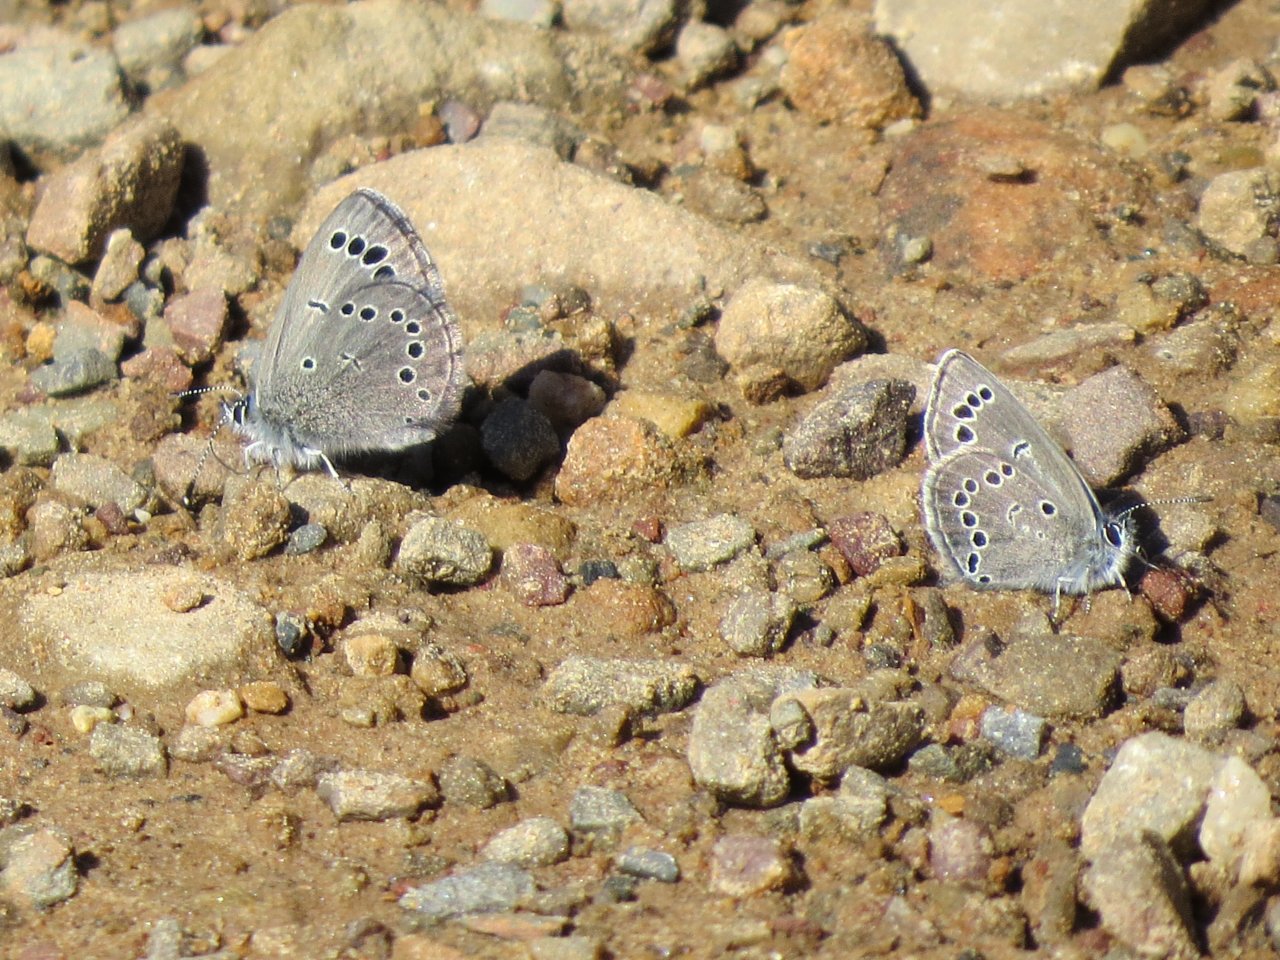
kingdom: Animalia
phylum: Arthropoda
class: Insecta
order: Lepidoptera
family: Lycaenidae
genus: Glaucopsyche
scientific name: Glaucopsyche lygdamus
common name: Silvery Blue
